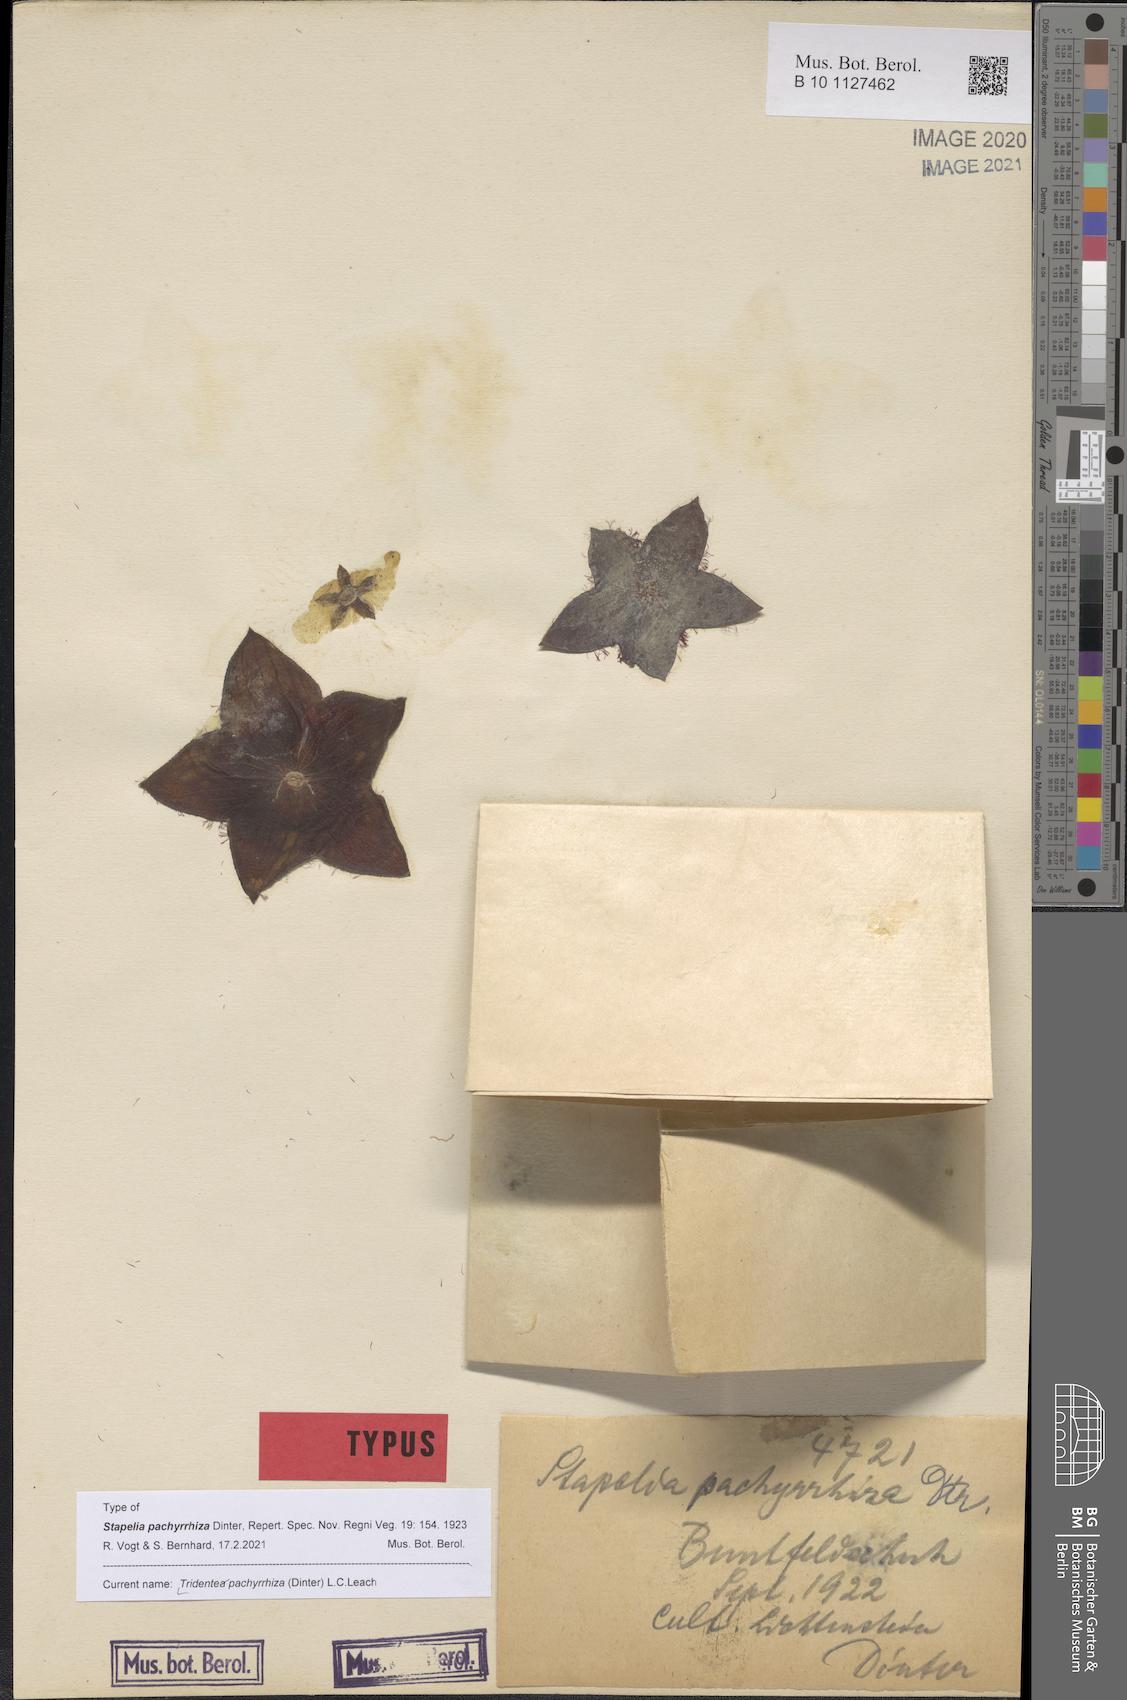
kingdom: Plantae
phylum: Tracheophyta
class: Magnoliopsida
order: Gentianales
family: Apocynaceae
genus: Ceropegia
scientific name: Ceropegia pachyrrhiza
